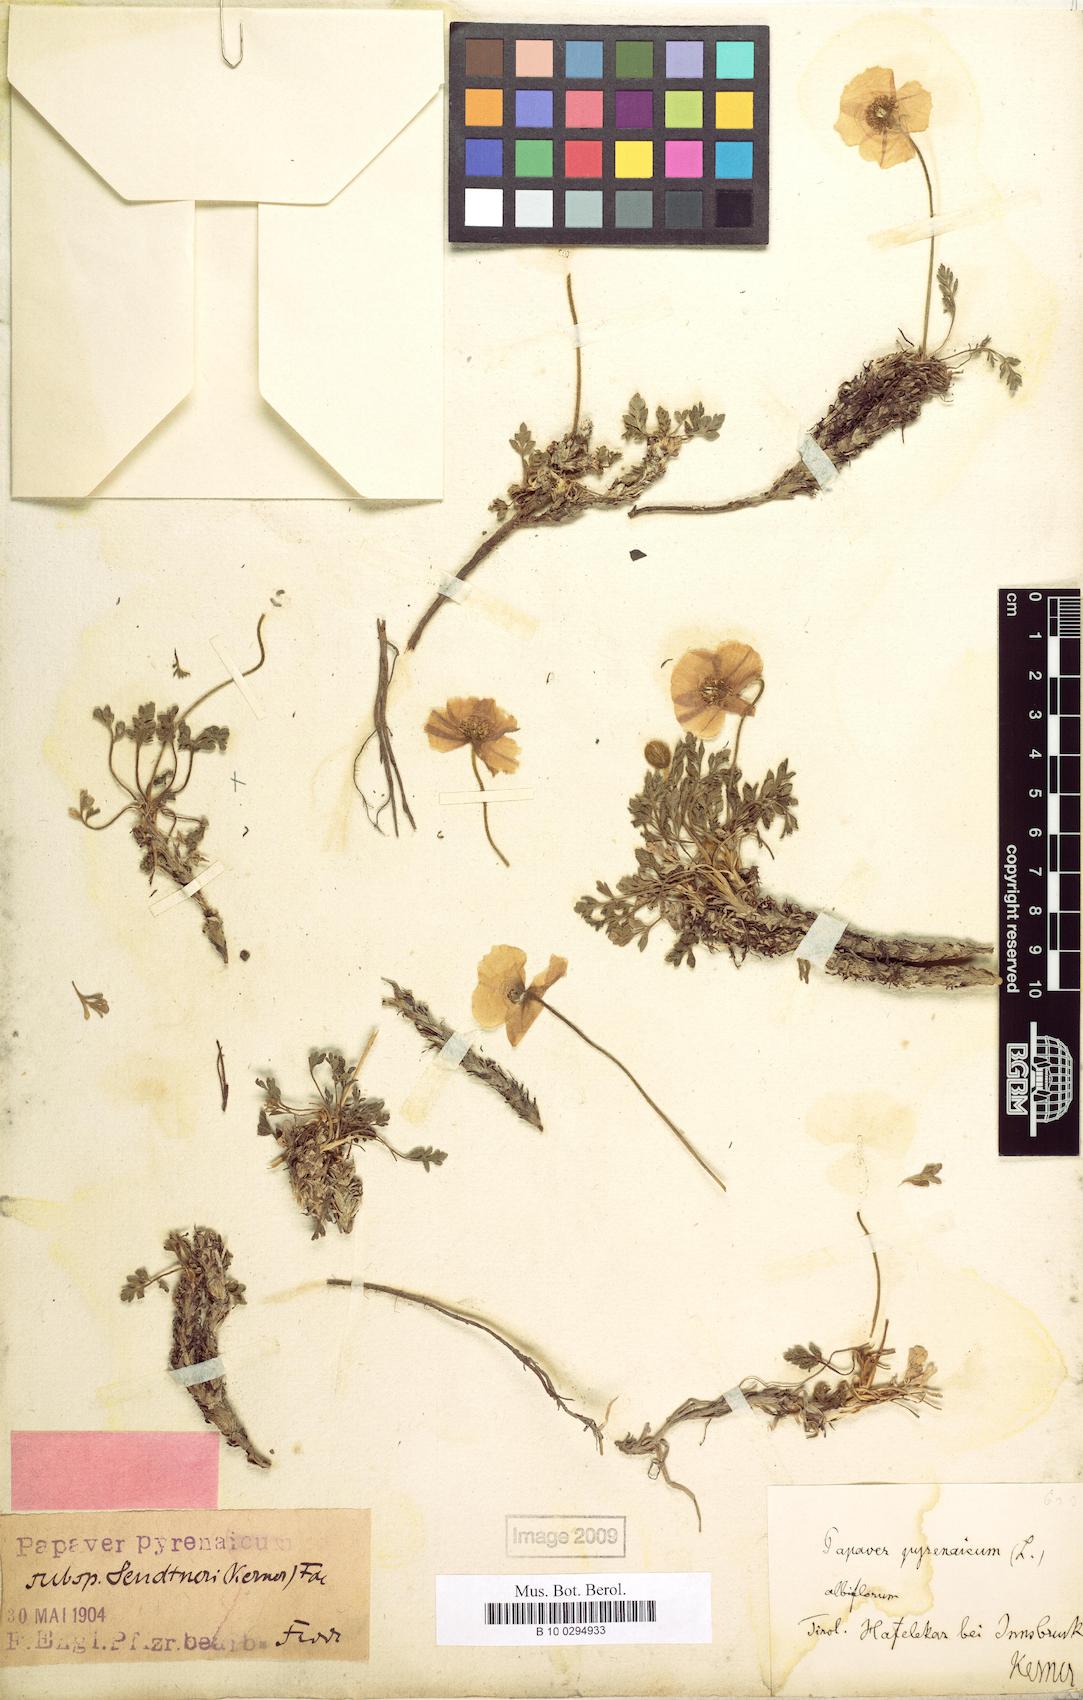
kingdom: Plantae
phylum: Tracheophyta
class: Magnoliopsida
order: Ranunculales
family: Papaveraceae
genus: Papaver
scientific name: Papaver alpinum
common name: Austrian poppy
